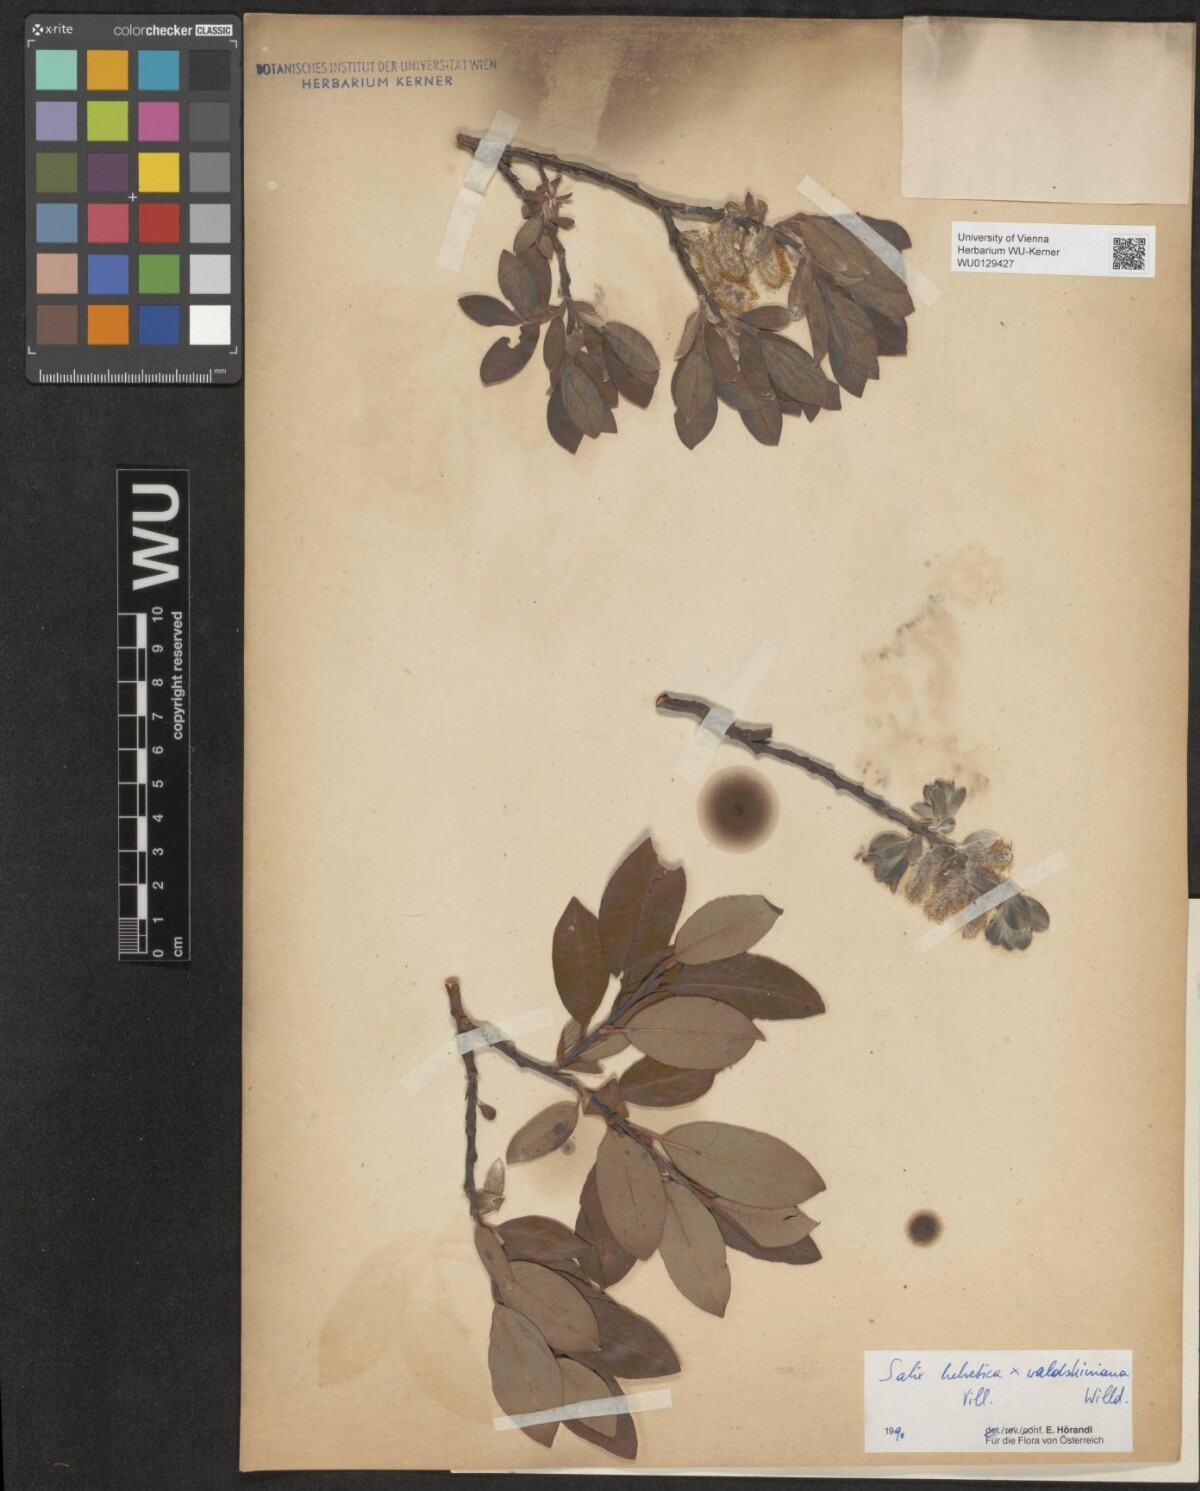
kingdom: Plantae
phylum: Tracheophyta
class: Magnoliopsida
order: Malpighiales
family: Salicaceae
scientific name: Salicaceae
